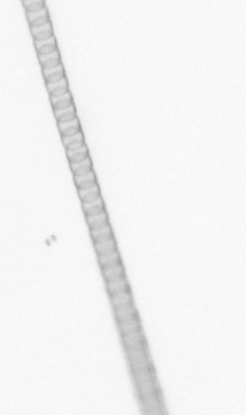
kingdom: Chromista
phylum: Ochrophyta
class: Bacillariophyceae
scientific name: Bacillariophyceae
